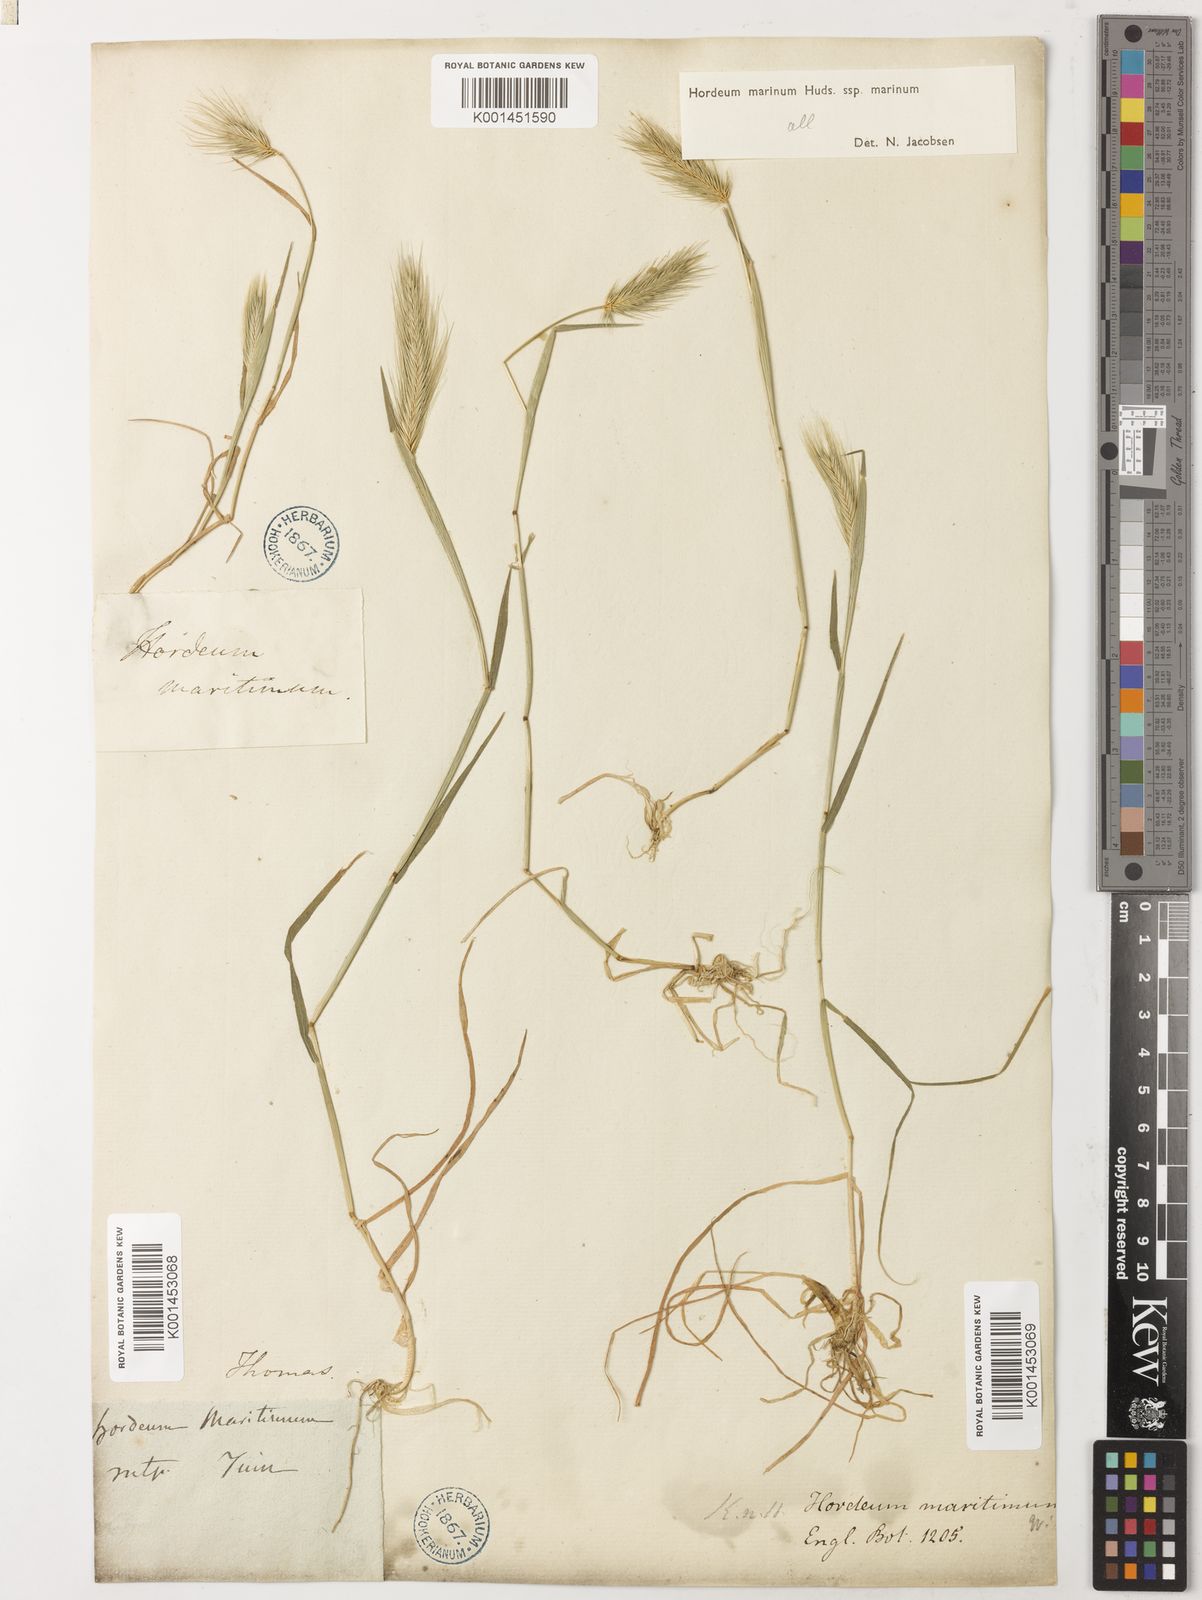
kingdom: Plantae
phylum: Tracheophyta
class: Liliopsida
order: Poales
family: Poaceae
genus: Hordeum
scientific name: Hordeum marinum
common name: Sea barley
